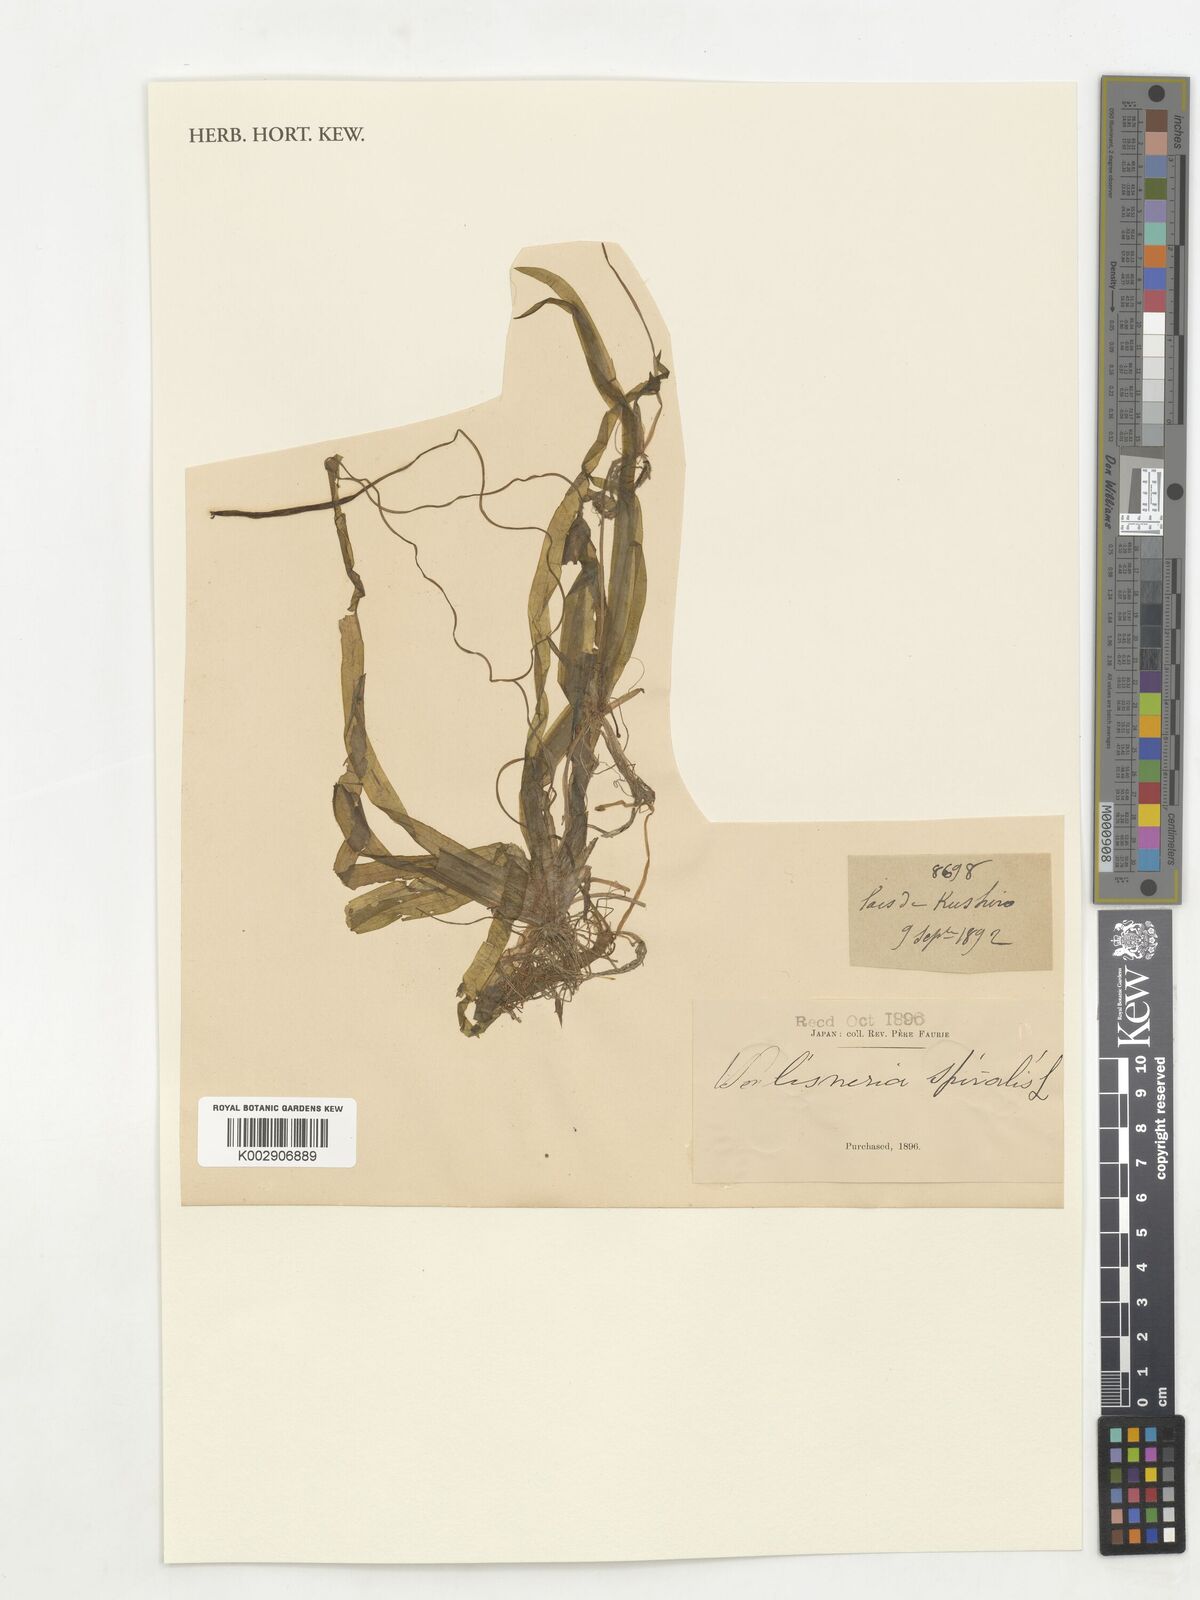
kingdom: Plantae
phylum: Tracheophyta
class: Liliopsida
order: Alismatales
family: Hydrocharitaceae
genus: Vallisneria
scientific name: Vallisneria spiralis
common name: Tapegrass
